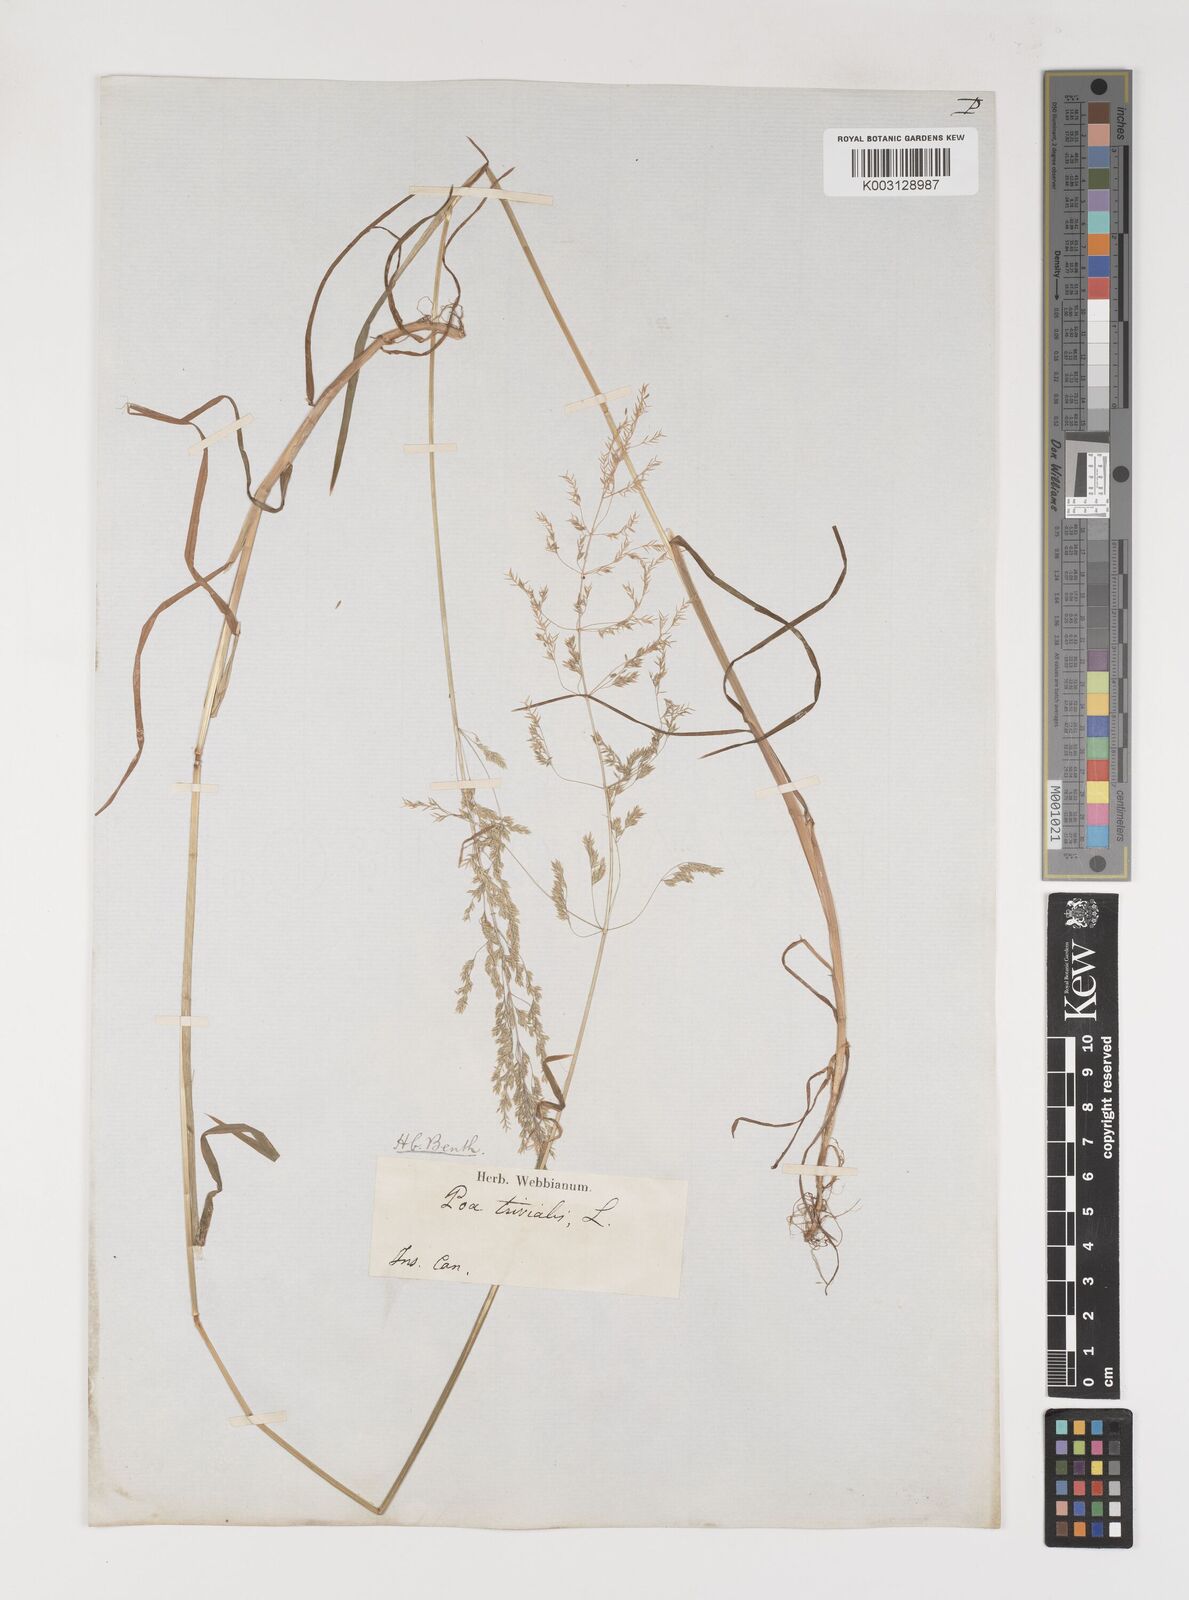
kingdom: Plantae
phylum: Tracheophyta
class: Liliopsida
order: Poales
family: Poaceae
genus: Poa
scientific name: Poa trivialis
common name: Rough bluegrass
